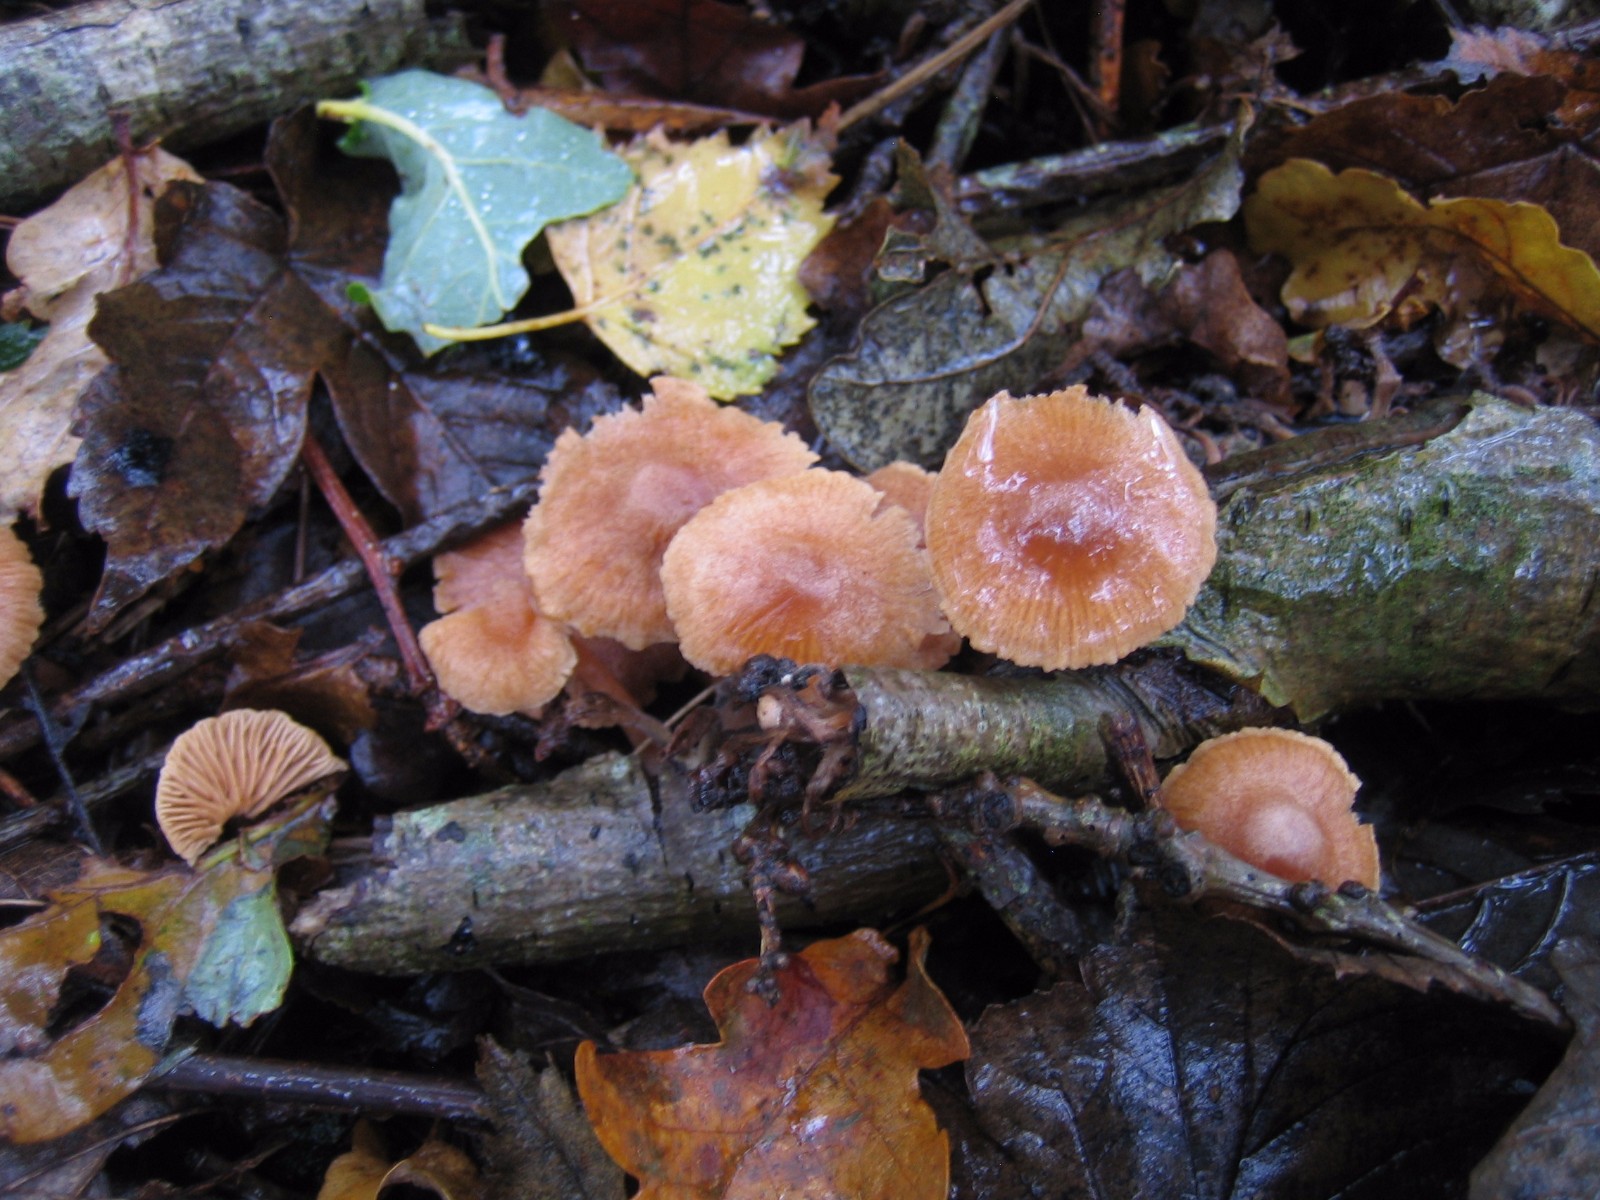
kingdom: Fungi
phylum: Basidiomycota
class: Agaricomycetes
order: Agaricales
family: Tubariaceae
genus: Tubaria
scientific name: Tubaria
